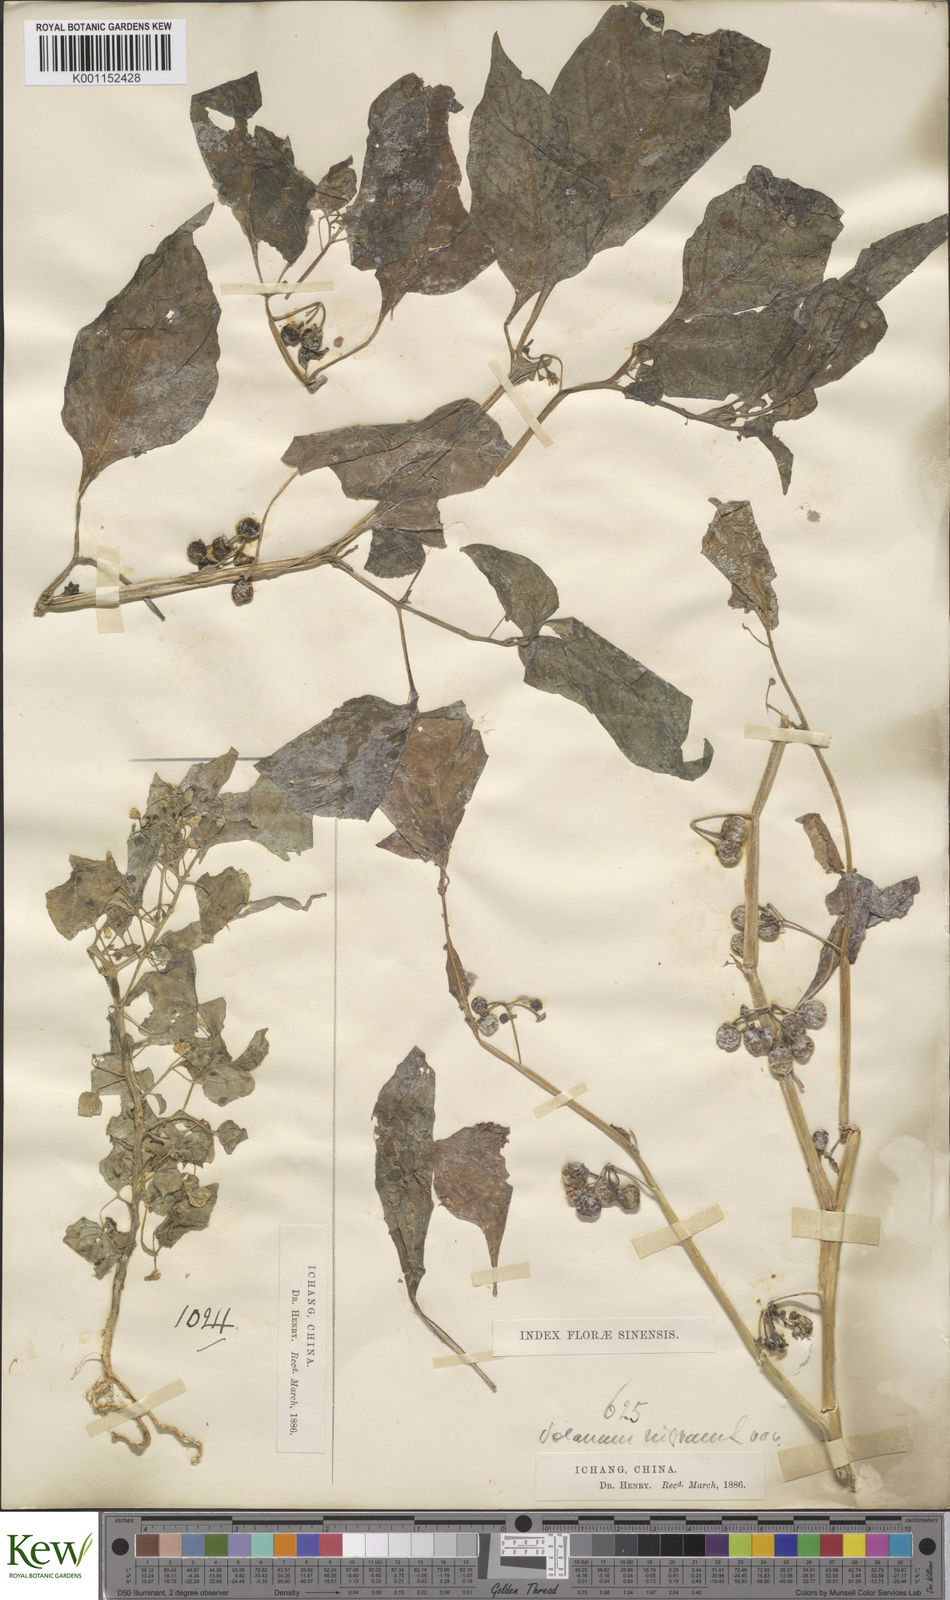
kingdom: Plantae
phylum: Tracheophyta
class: Magnoliopsida
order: Solanales
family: Solanaceae
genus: Solanum
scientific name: Solanum scabrum
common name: Garden-huckleberry
